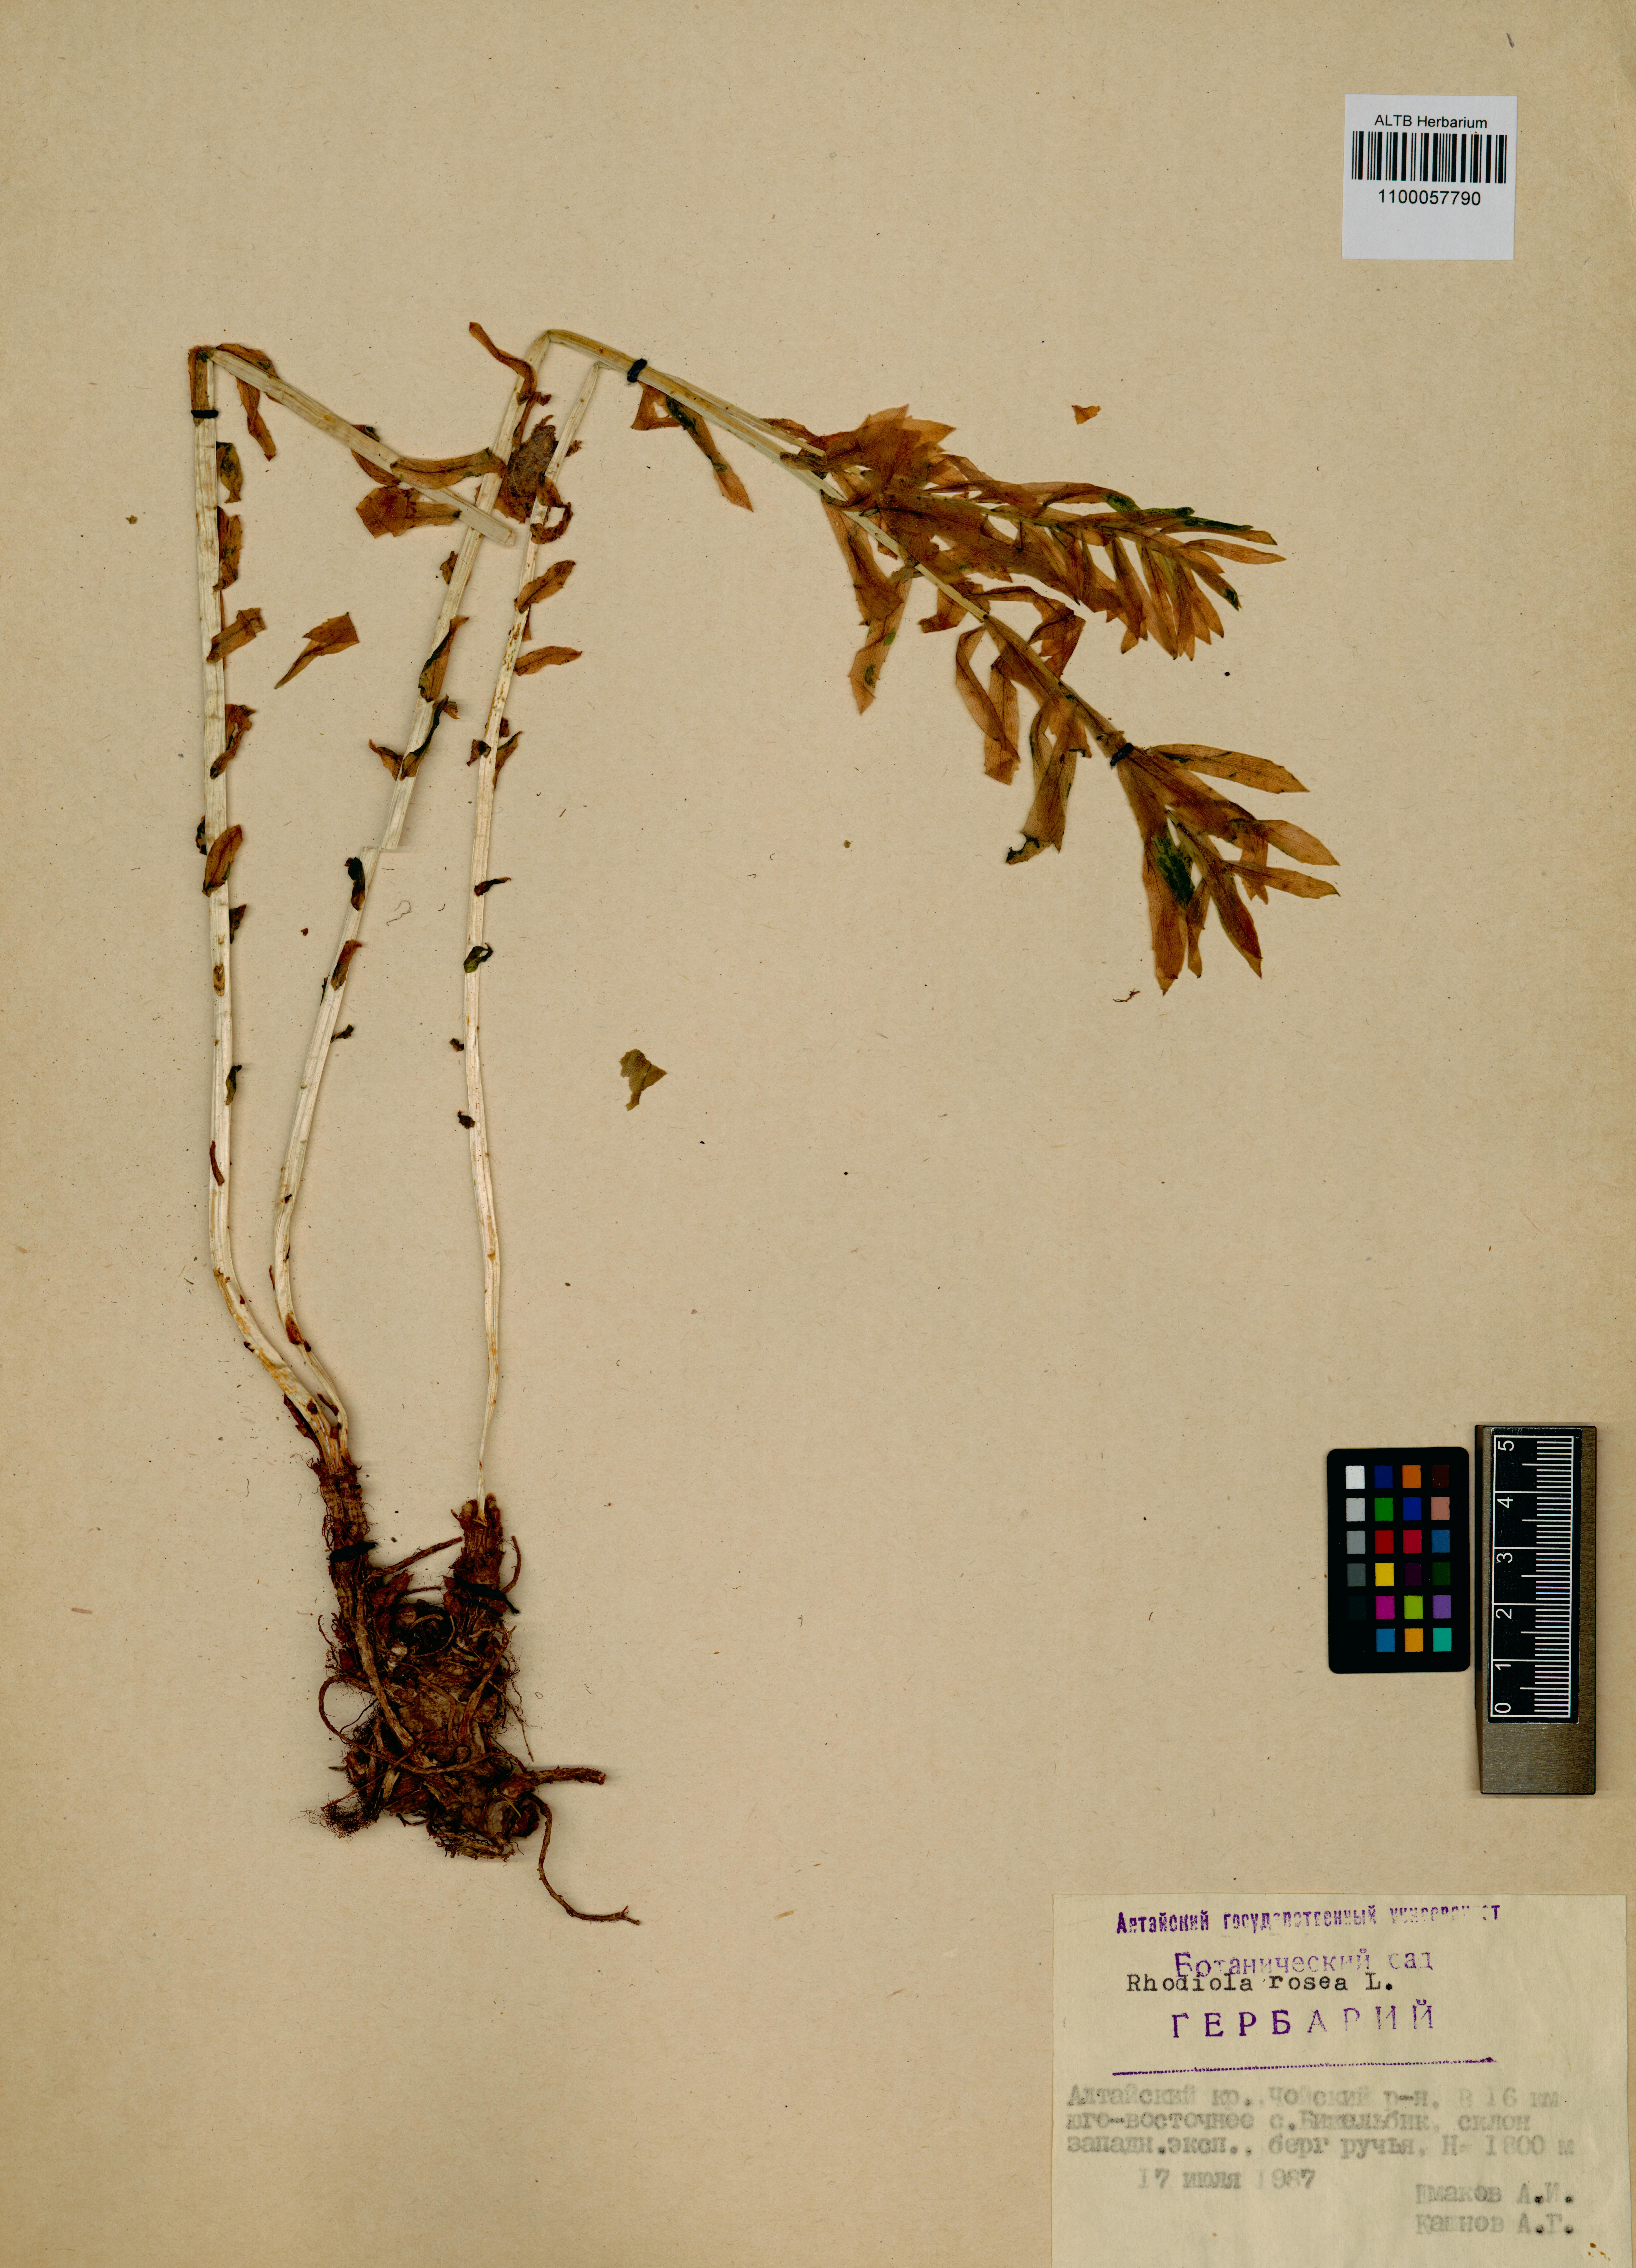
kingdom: Plantae
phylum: Tracheophyta
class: Magnoliopsida
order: Saxifragales
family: Crassulaceae
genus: Rhodiola
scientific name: Rhodiola rosea
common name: Roseroot
